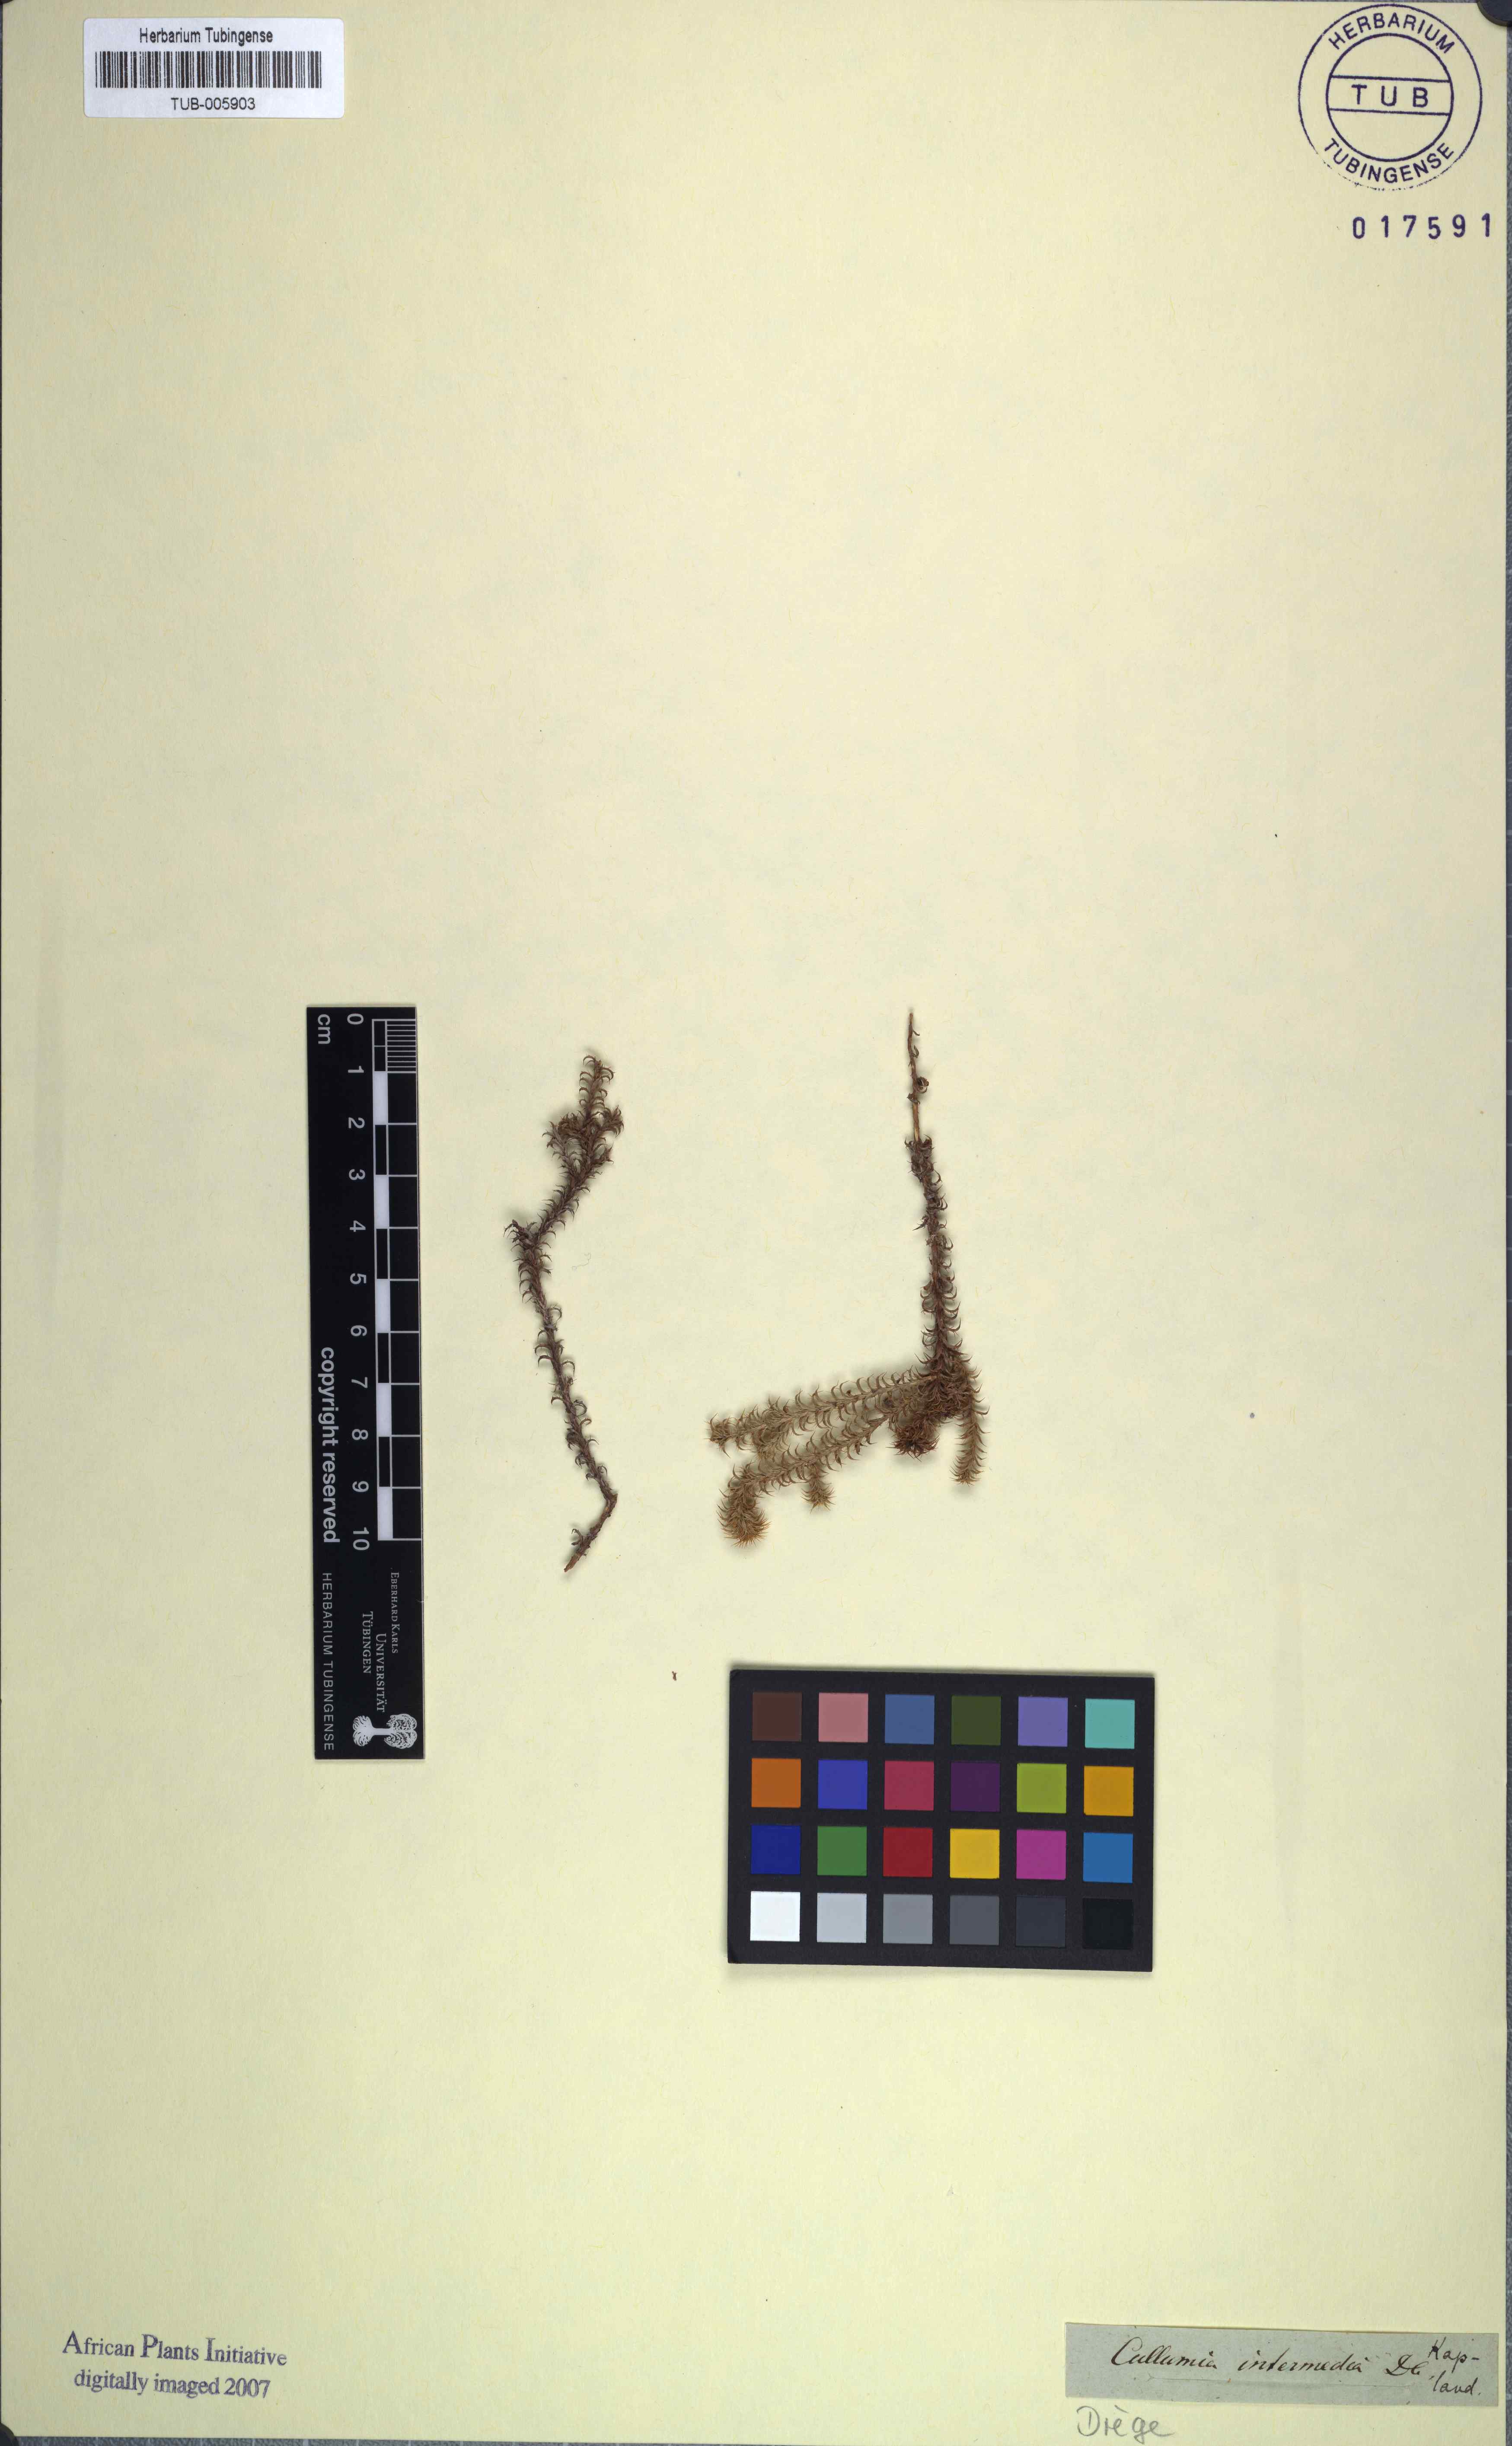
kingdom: Plantae
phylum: Tracheophyta
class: Magnoliopsida
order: Asterales
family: Asteraceae
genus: Cullumia
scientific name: Cullumia decurrens
